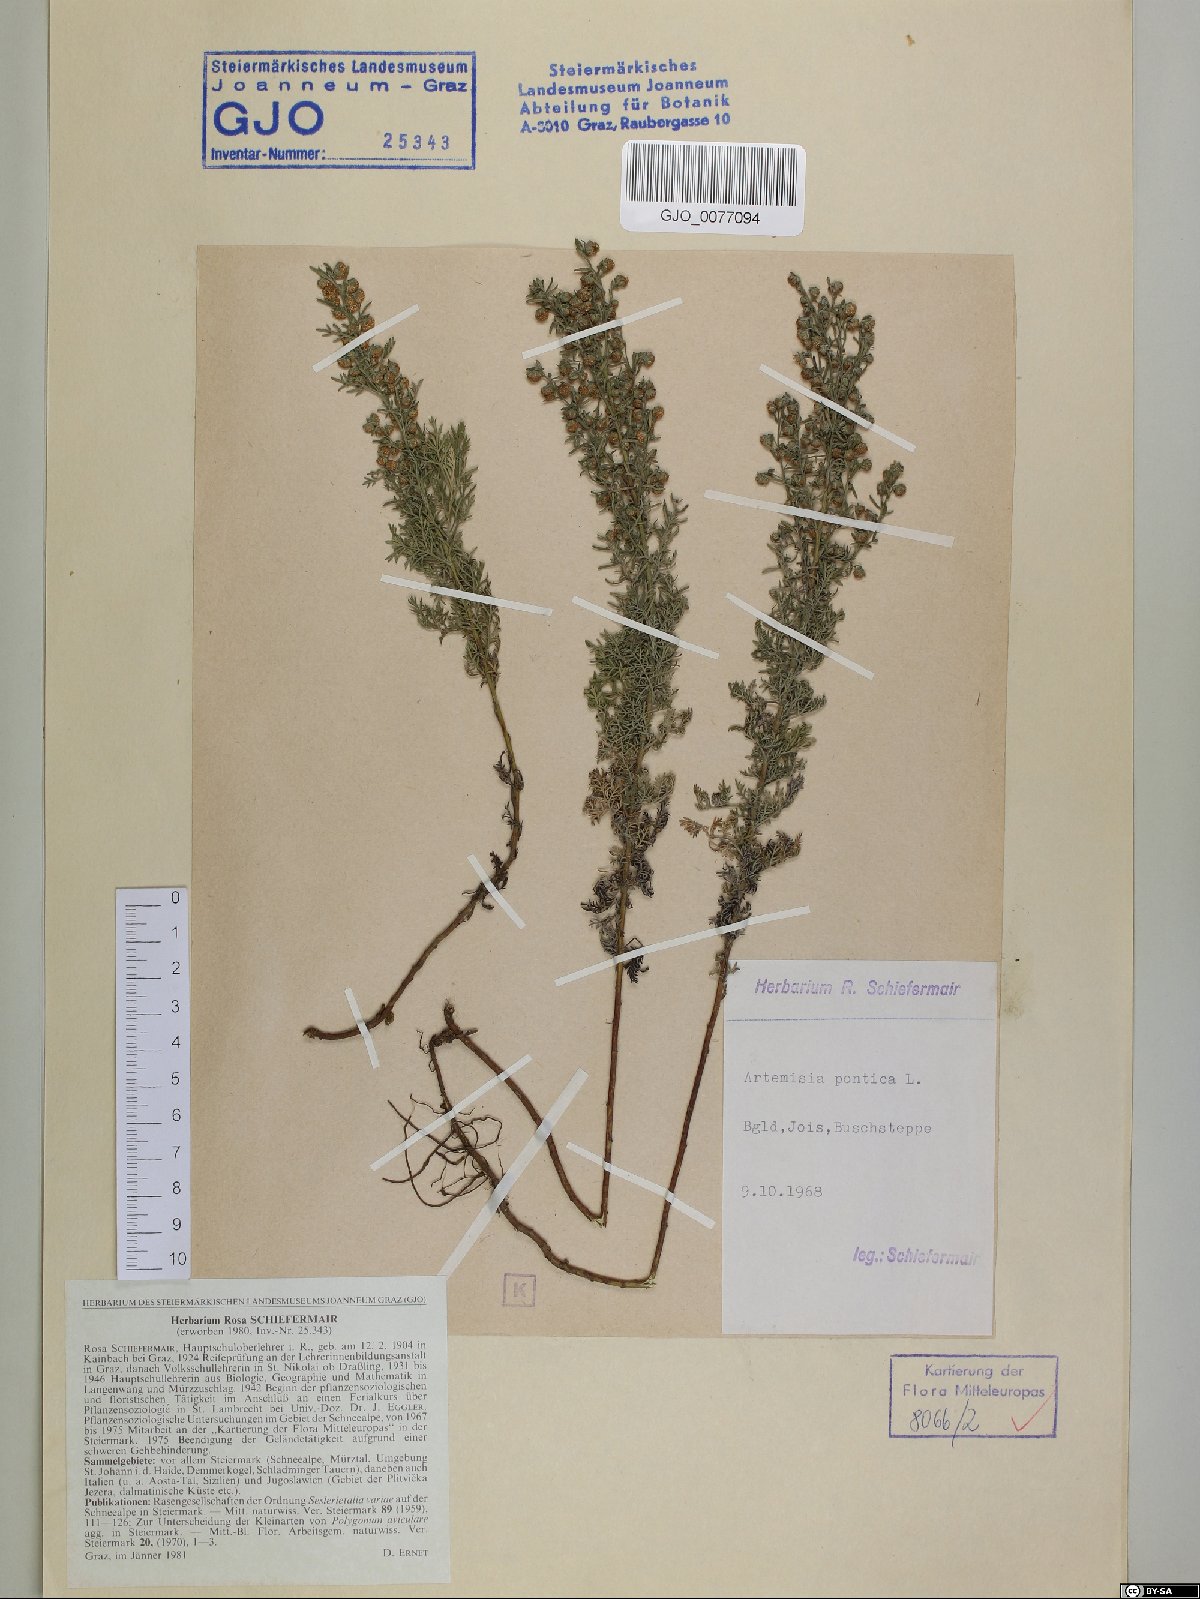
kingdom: Plantae
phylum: Tracheophyta
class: Magnoliopsida
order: Asterales
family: Asteraceae
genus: Artemisia
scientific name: Artemisia pontica
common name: Roman wormwood
